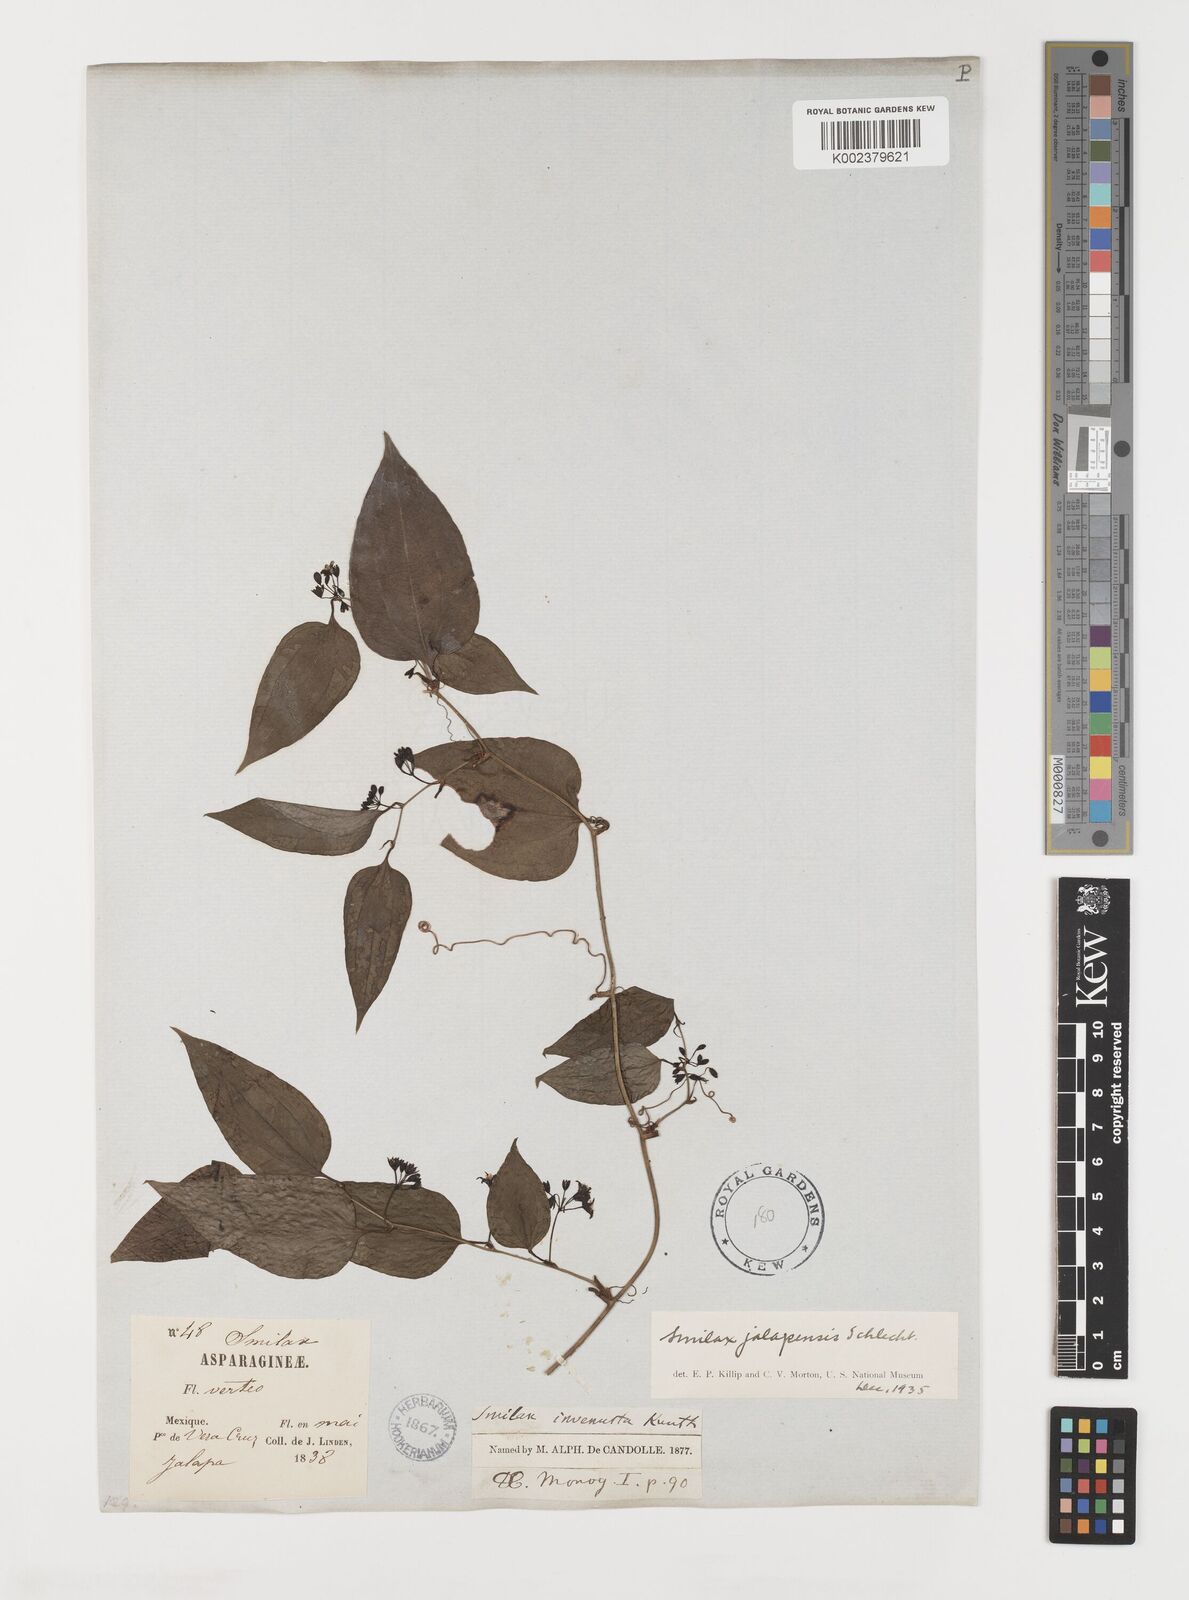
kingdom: Plantae
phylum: Tracheophyta
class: Liliopsida
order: Liliales
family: Smilacaceae
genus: Smilax
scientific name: Smilax moranensis
